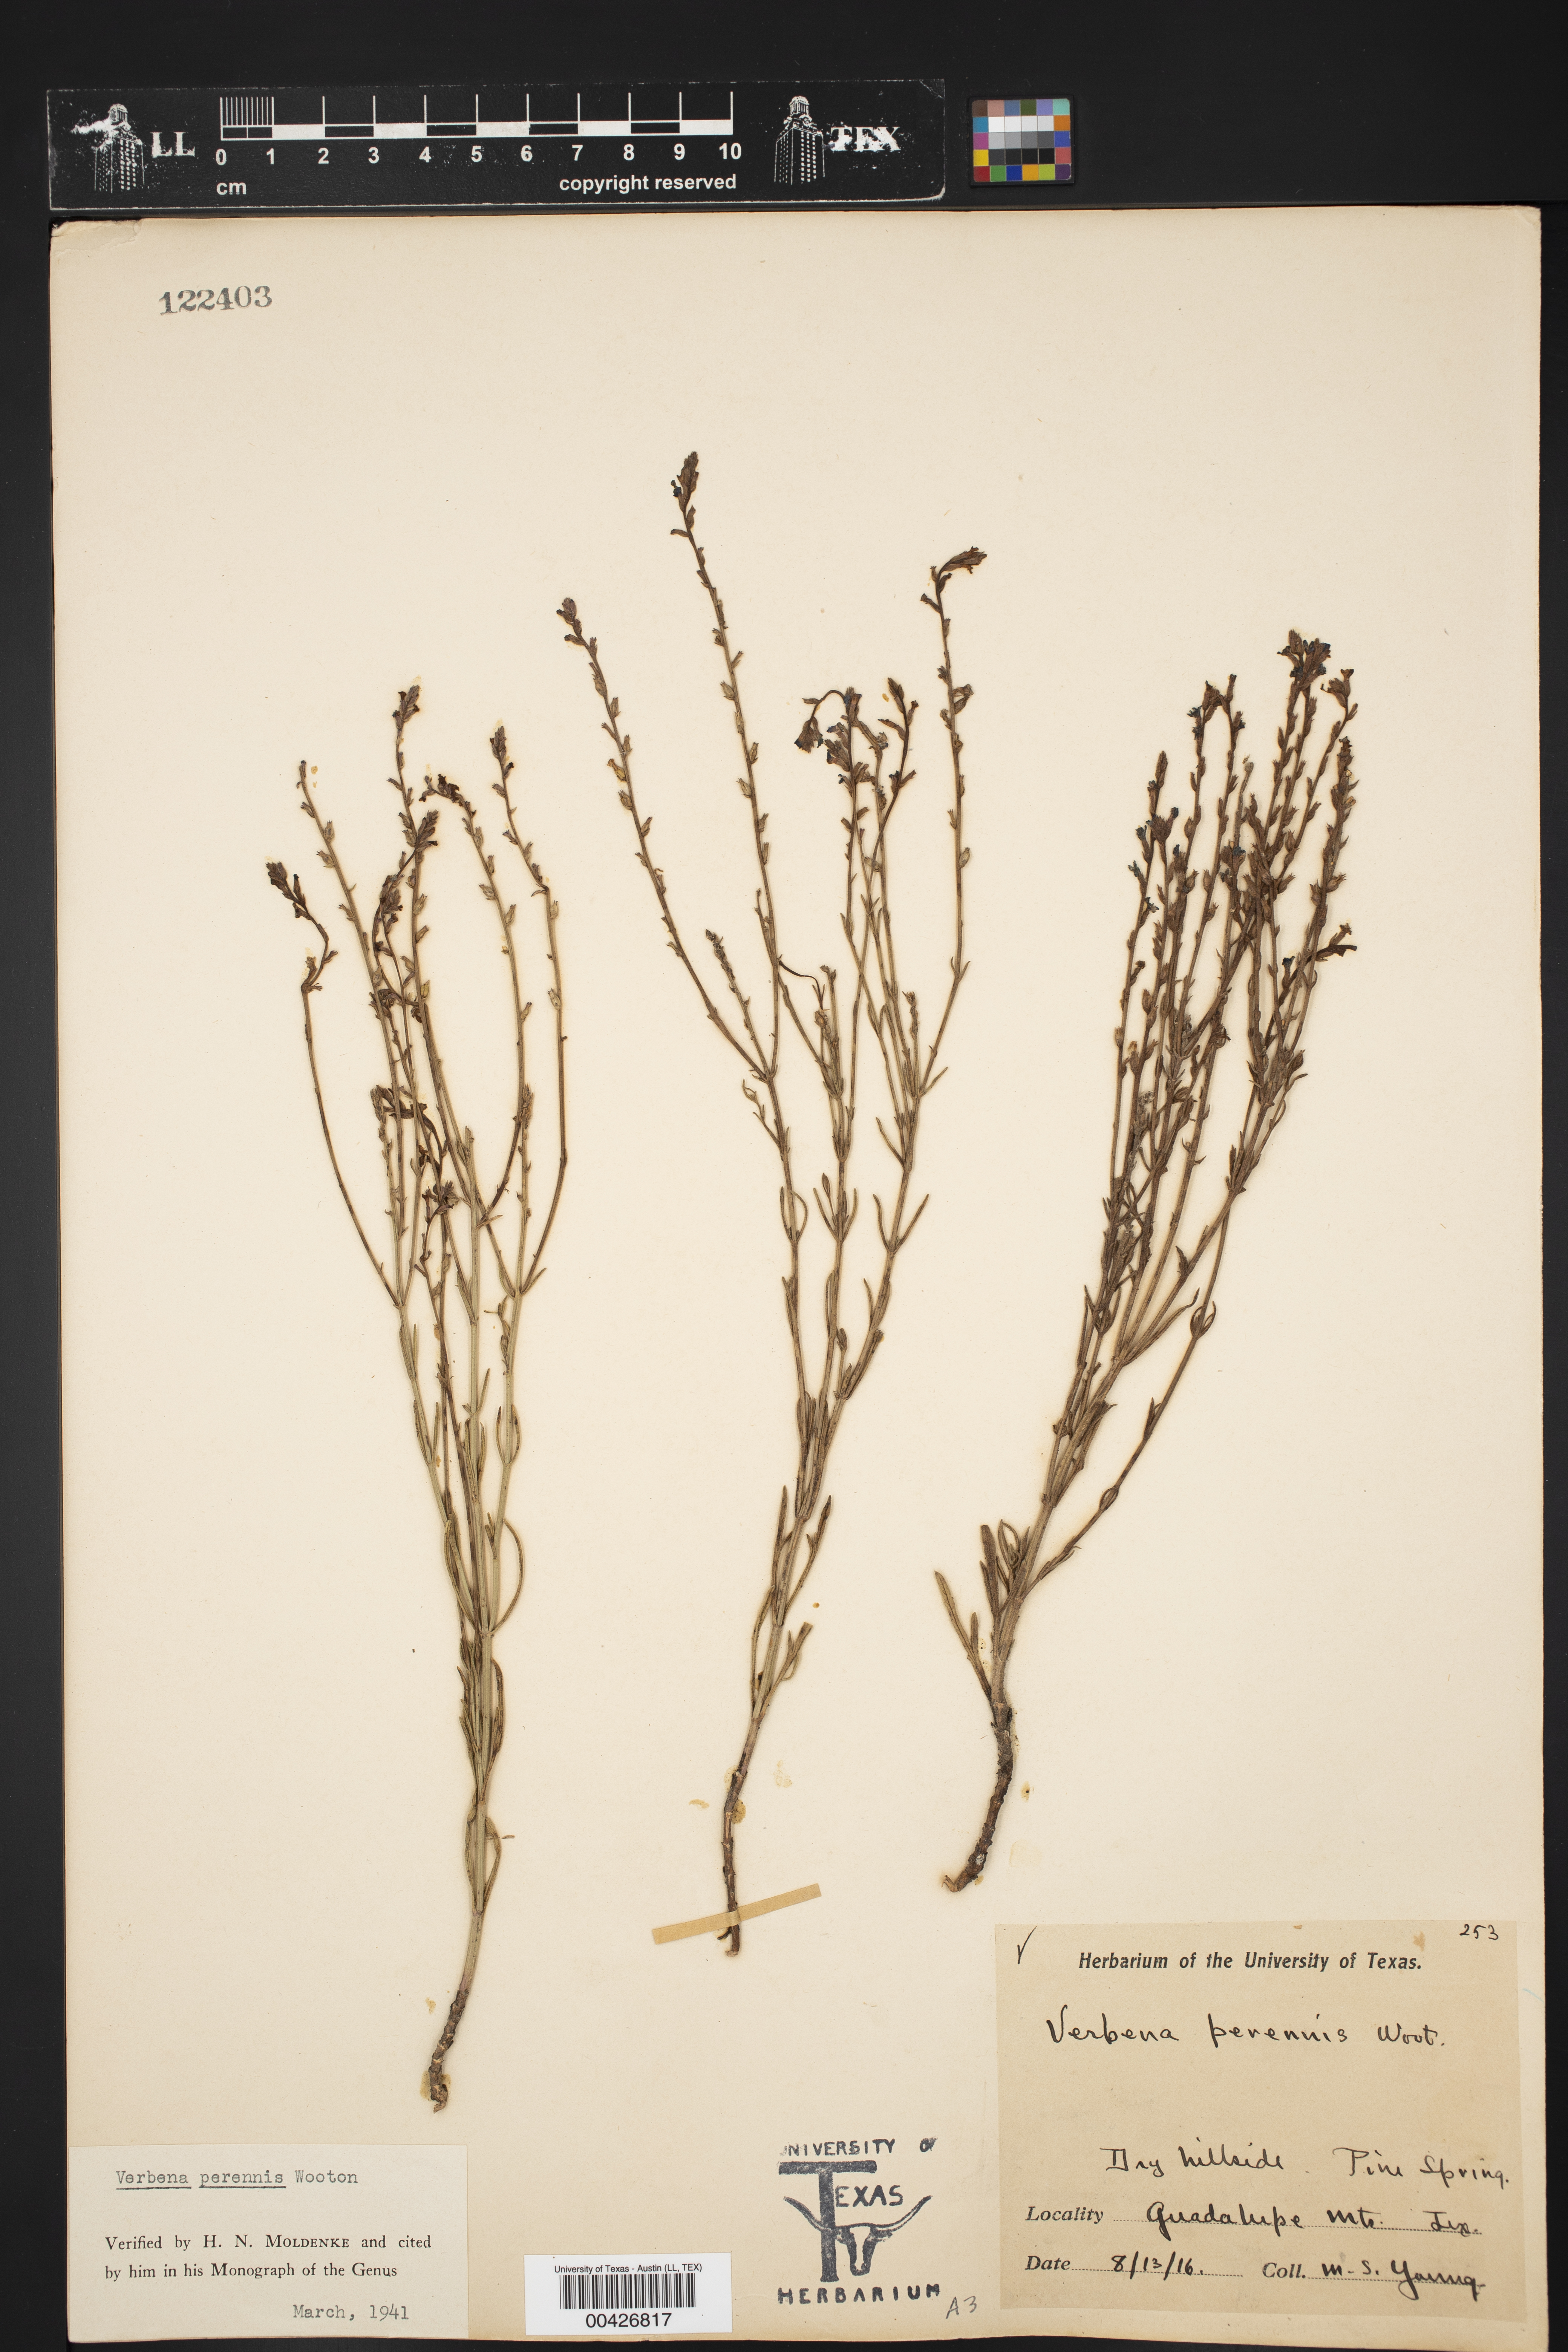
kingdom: Plantae
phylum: Tracheophyta
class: Magnoliopsida
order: Lamiales
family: Verbenaceae
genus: Verbena
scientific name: Verbena perennis
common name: Pin-leaf vervain
